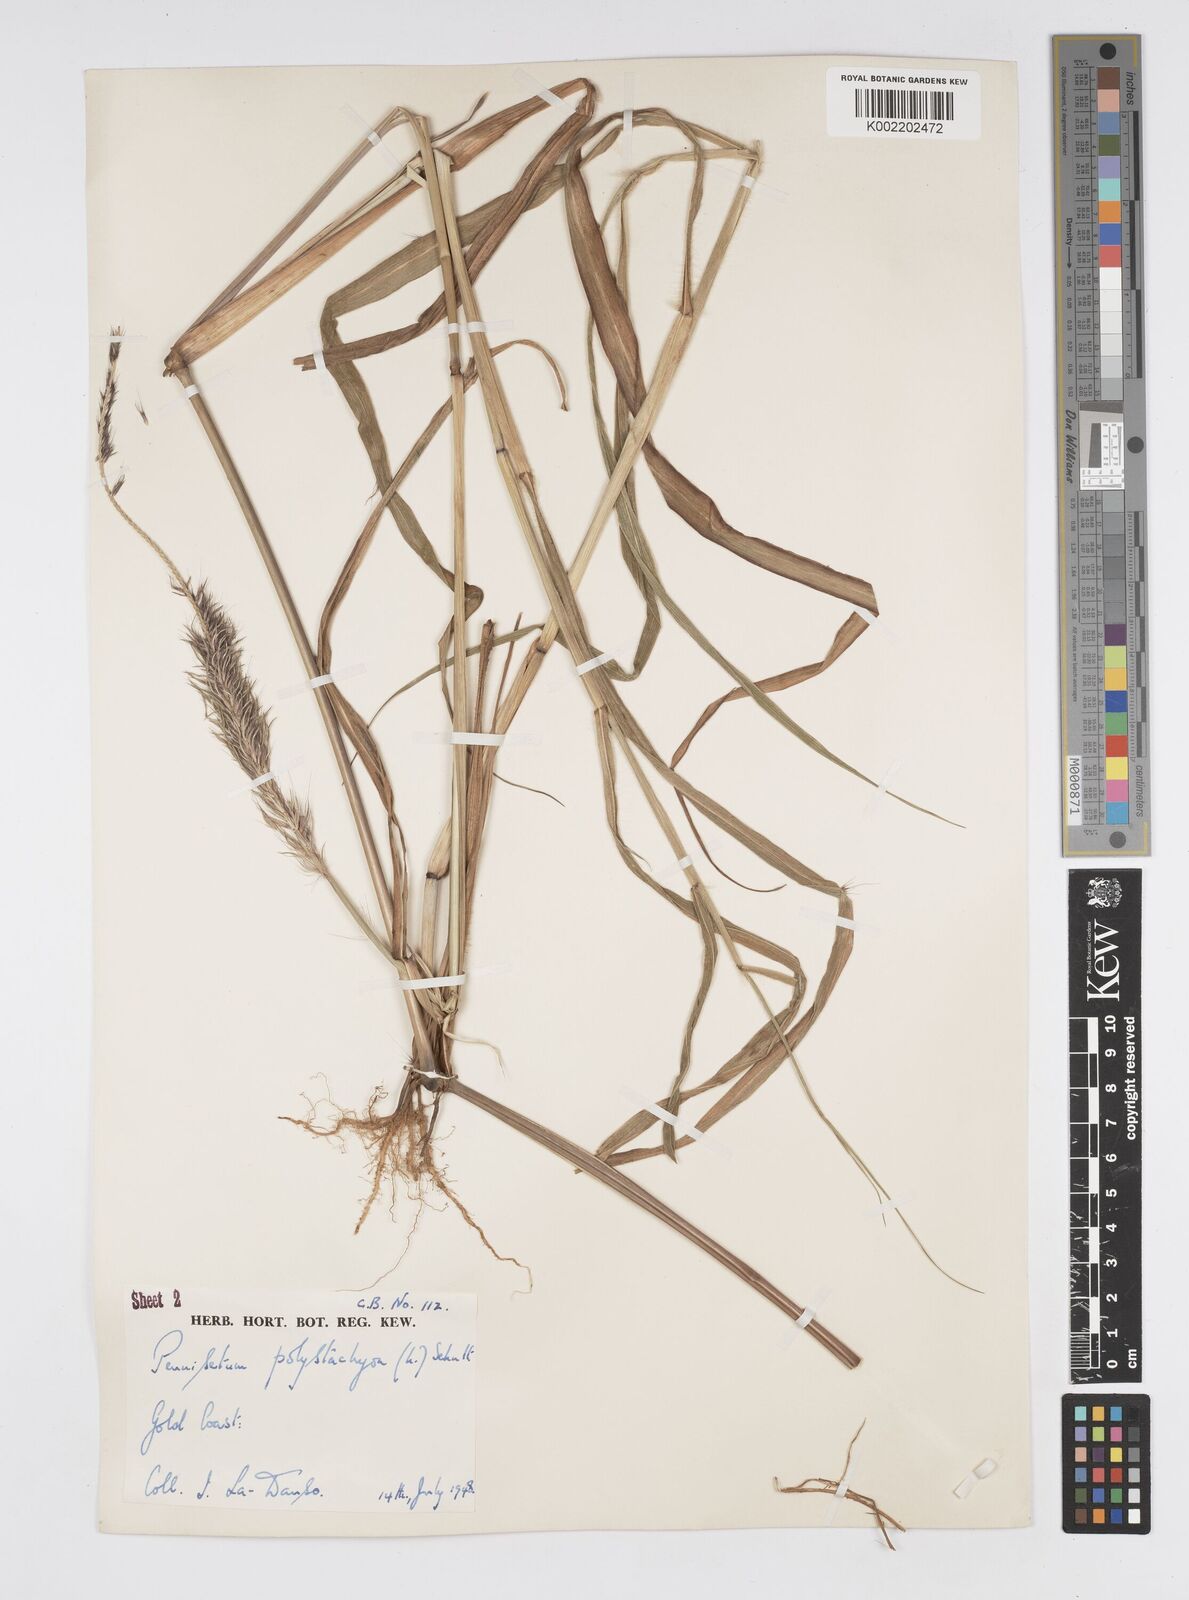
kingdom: Plantae
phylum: Tracheophyta
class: Liliopsida
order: Poales
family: Poaceae
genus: Setaria
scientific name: Setaria parviflora
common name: Knotroot bristle-grass
